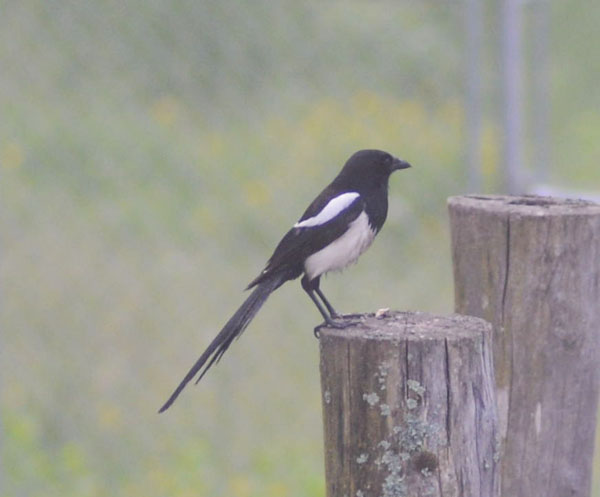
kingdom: Animalia
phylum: Chordata
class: Aves
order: Passeriformes
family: Corvidae
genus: Pica
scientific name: Pica pica
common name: Eurasian magpie
